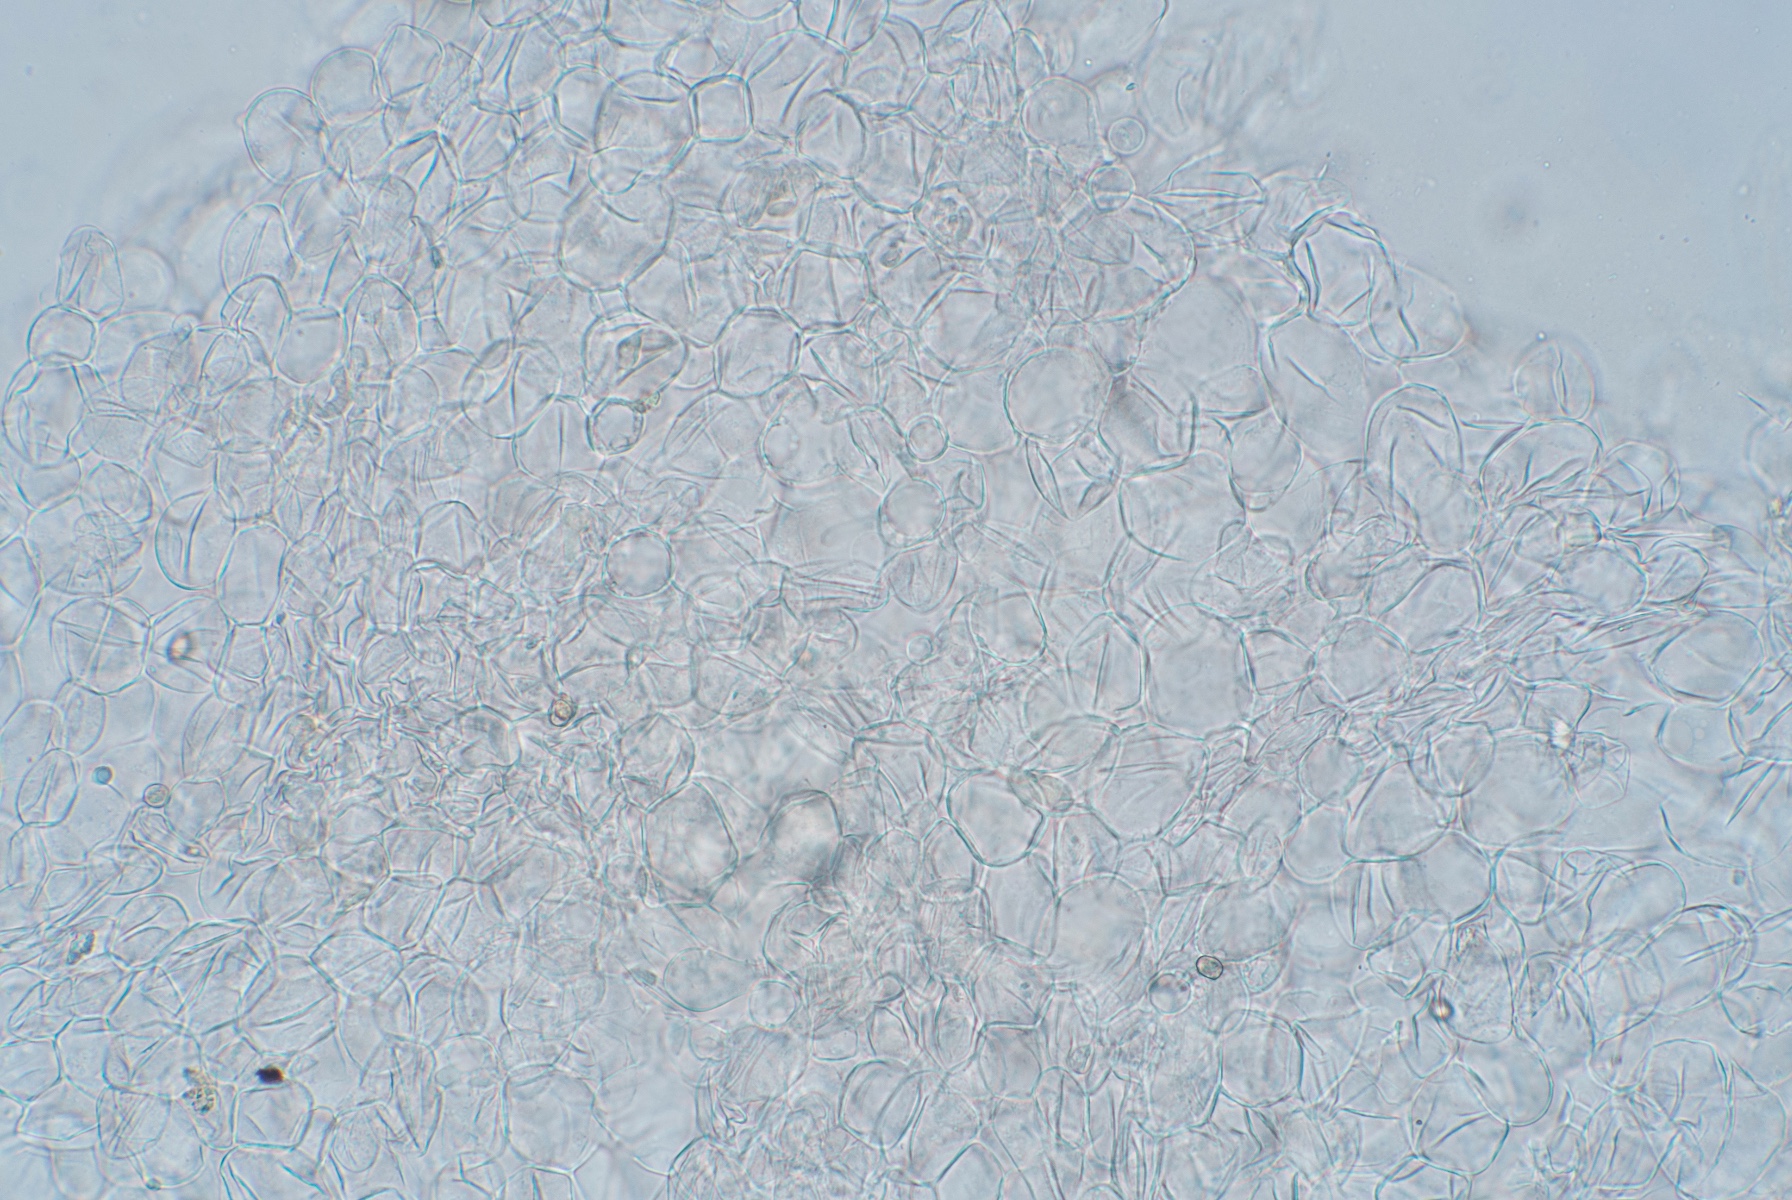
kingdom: Fungi
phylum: Basidiomycota
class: Agaricomycetes
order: Agaricales
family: Pluteaceae
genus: Pluteus
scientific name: Pluteus phlebophorus
